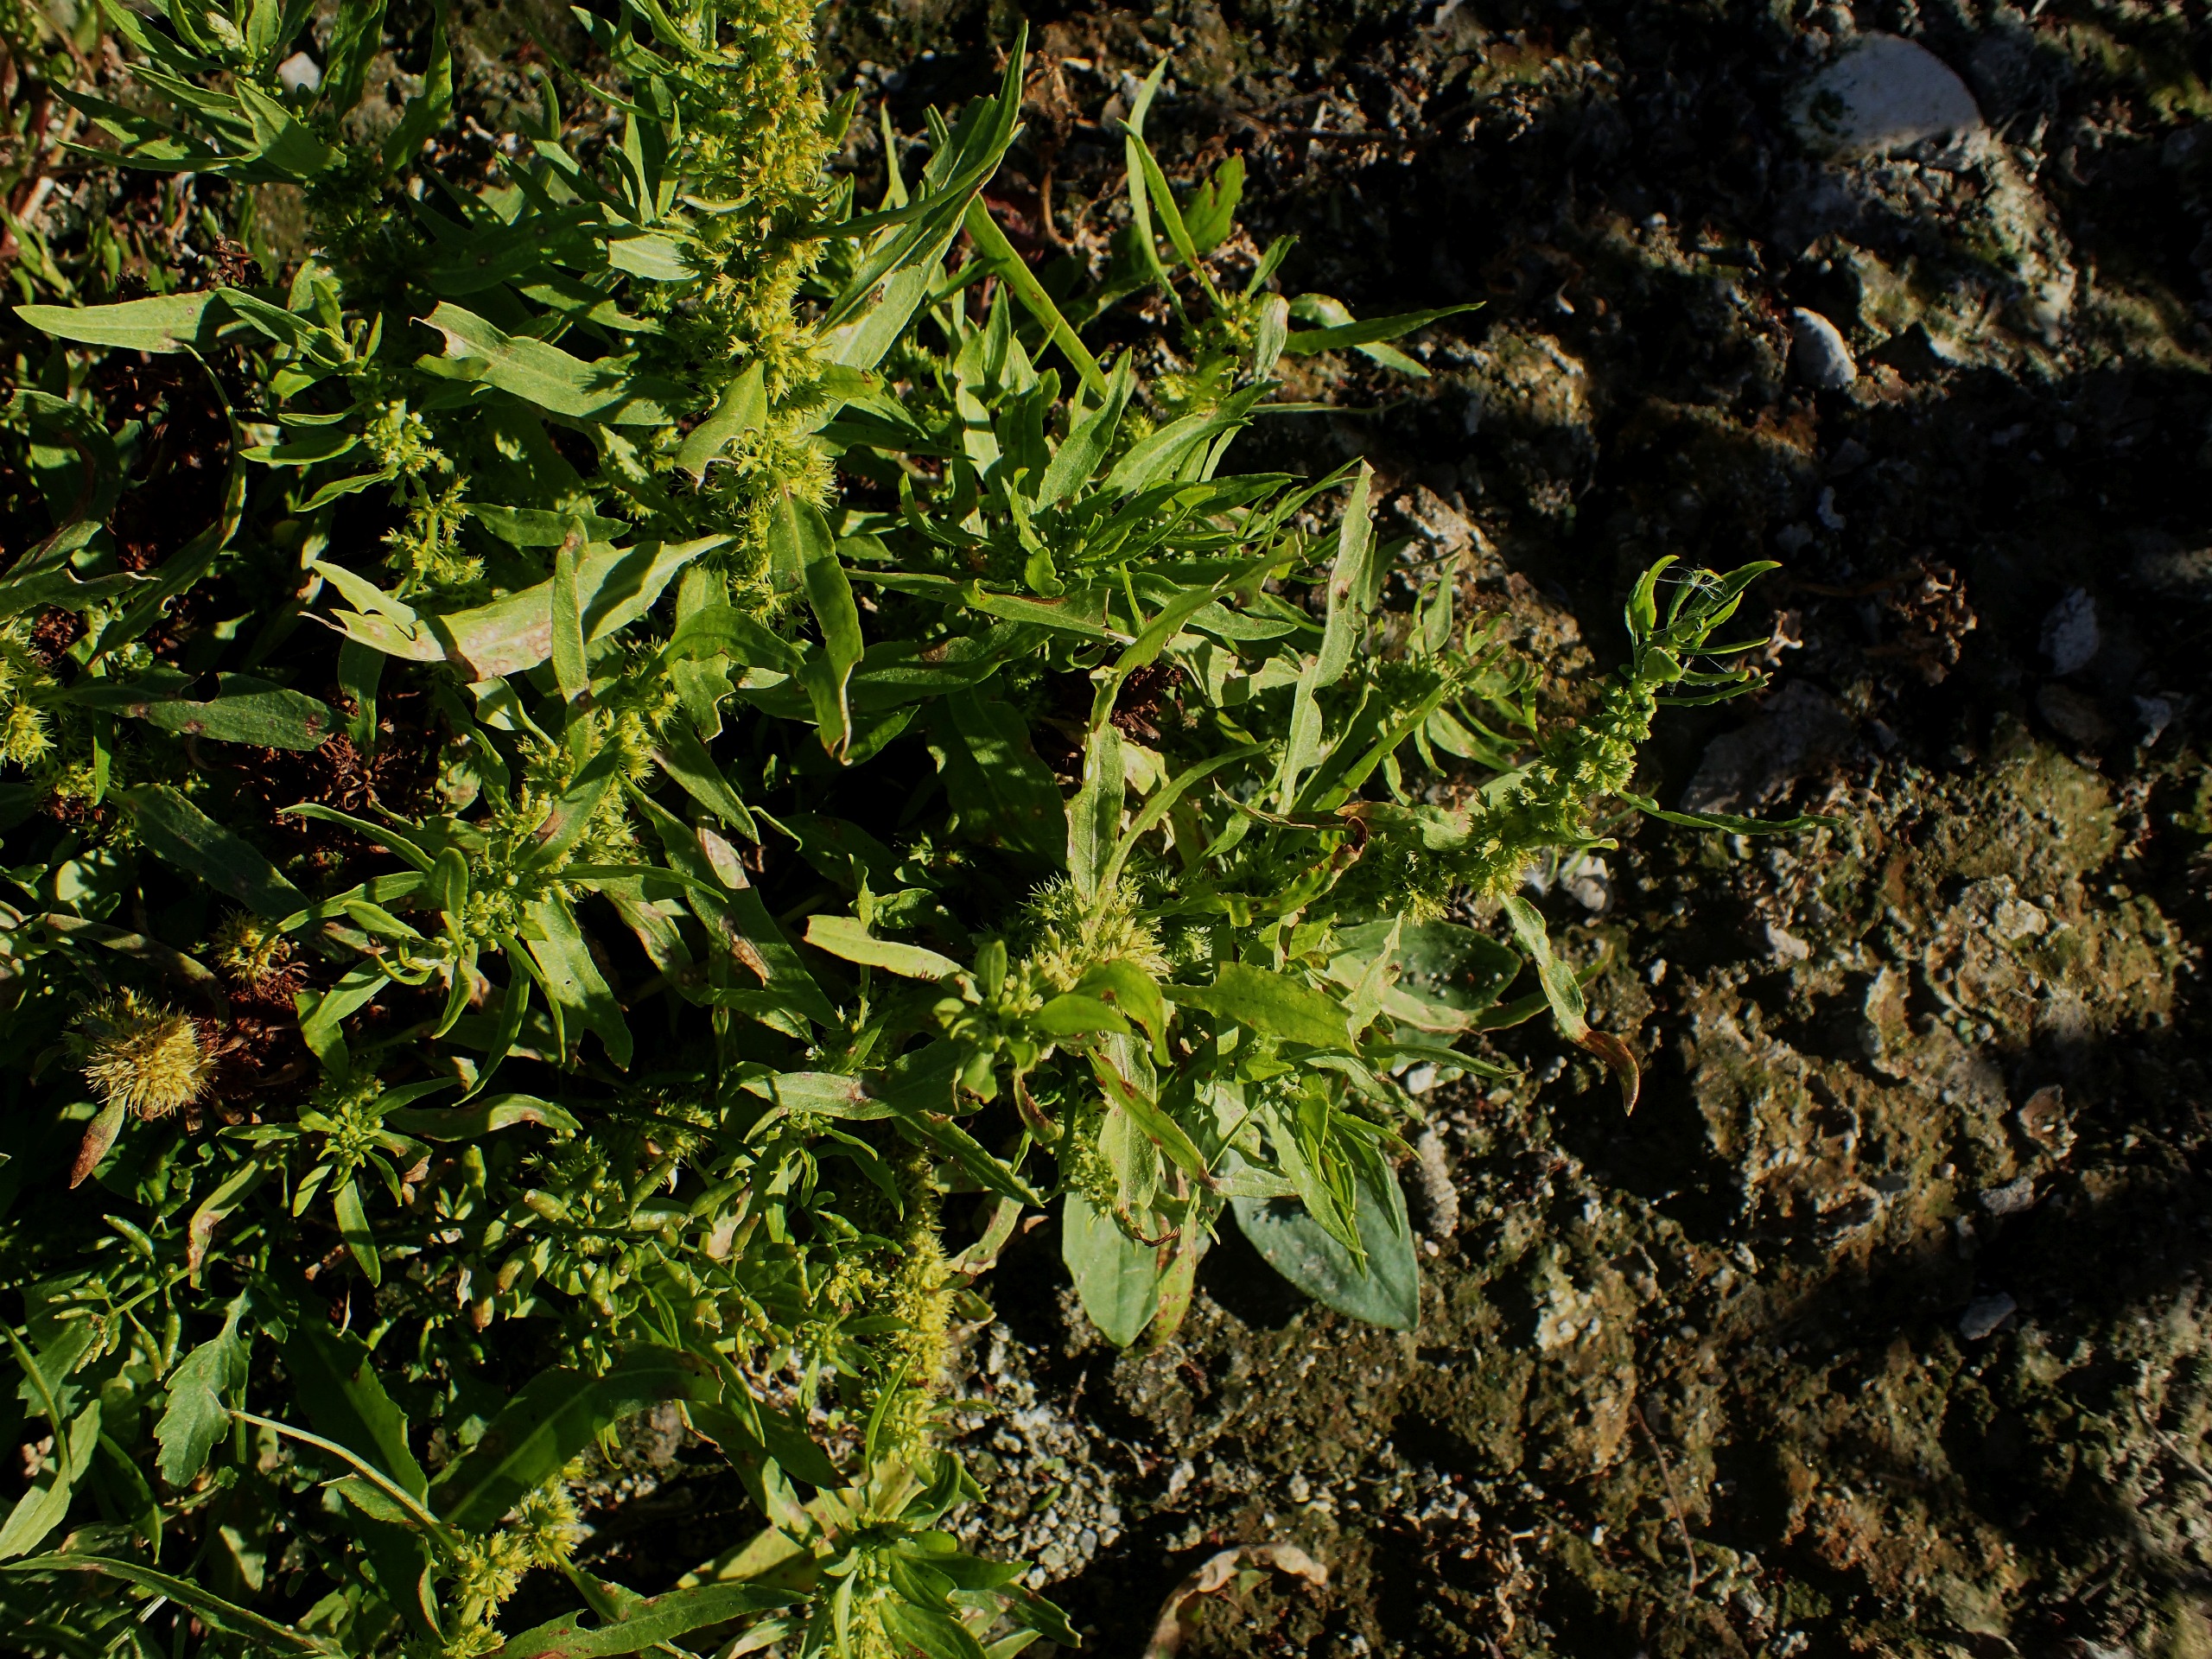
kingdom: Plantae
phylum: Tracheophyta
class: Magnoliopsida
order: Caryophyllales
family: Polygonaceae
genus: Rumex
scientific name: Rumex maritimus
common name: Strand-skræppe
